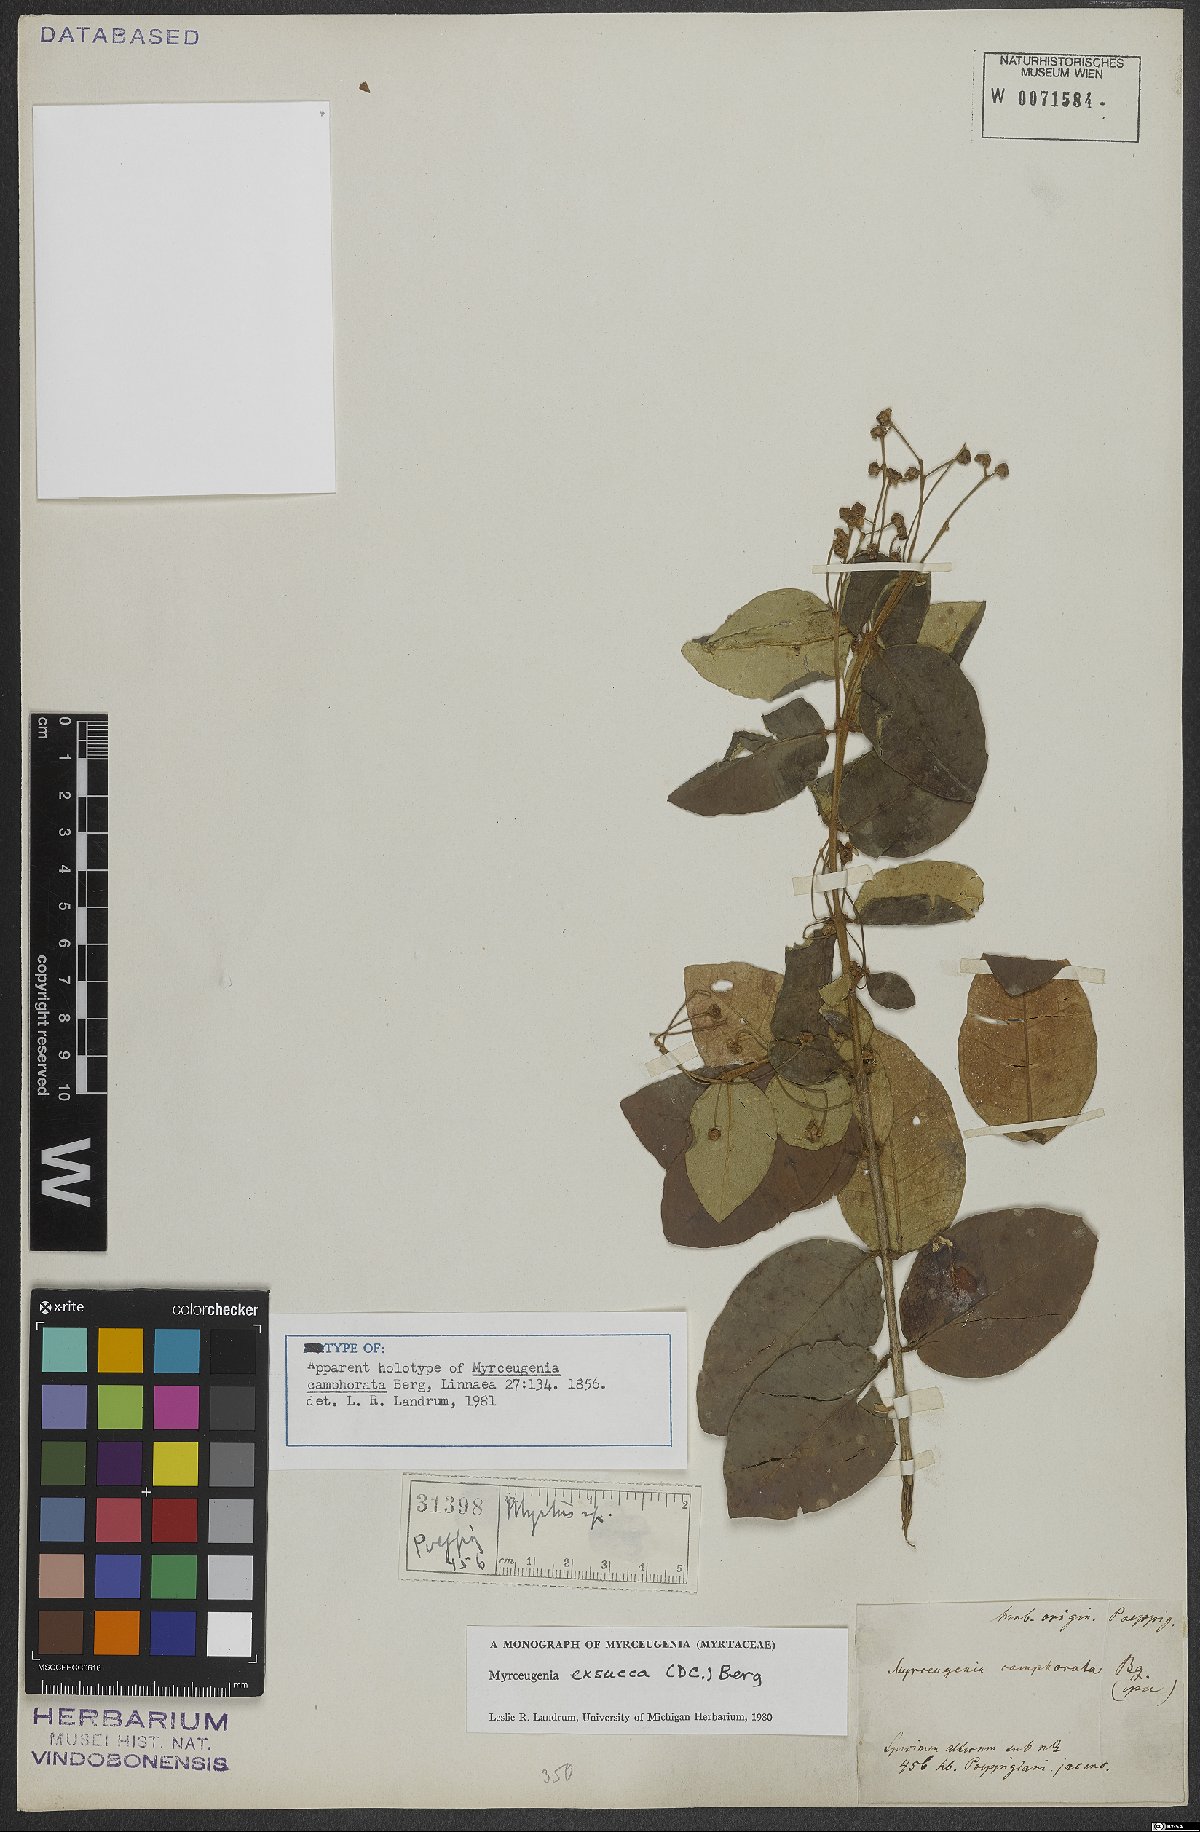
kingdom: Plantae
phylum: Tracheophyta
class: Magnoliopsida
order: Myrtales
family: Myrtaceae
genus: Myrceugenia
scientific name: Myrceugenia exsucca
